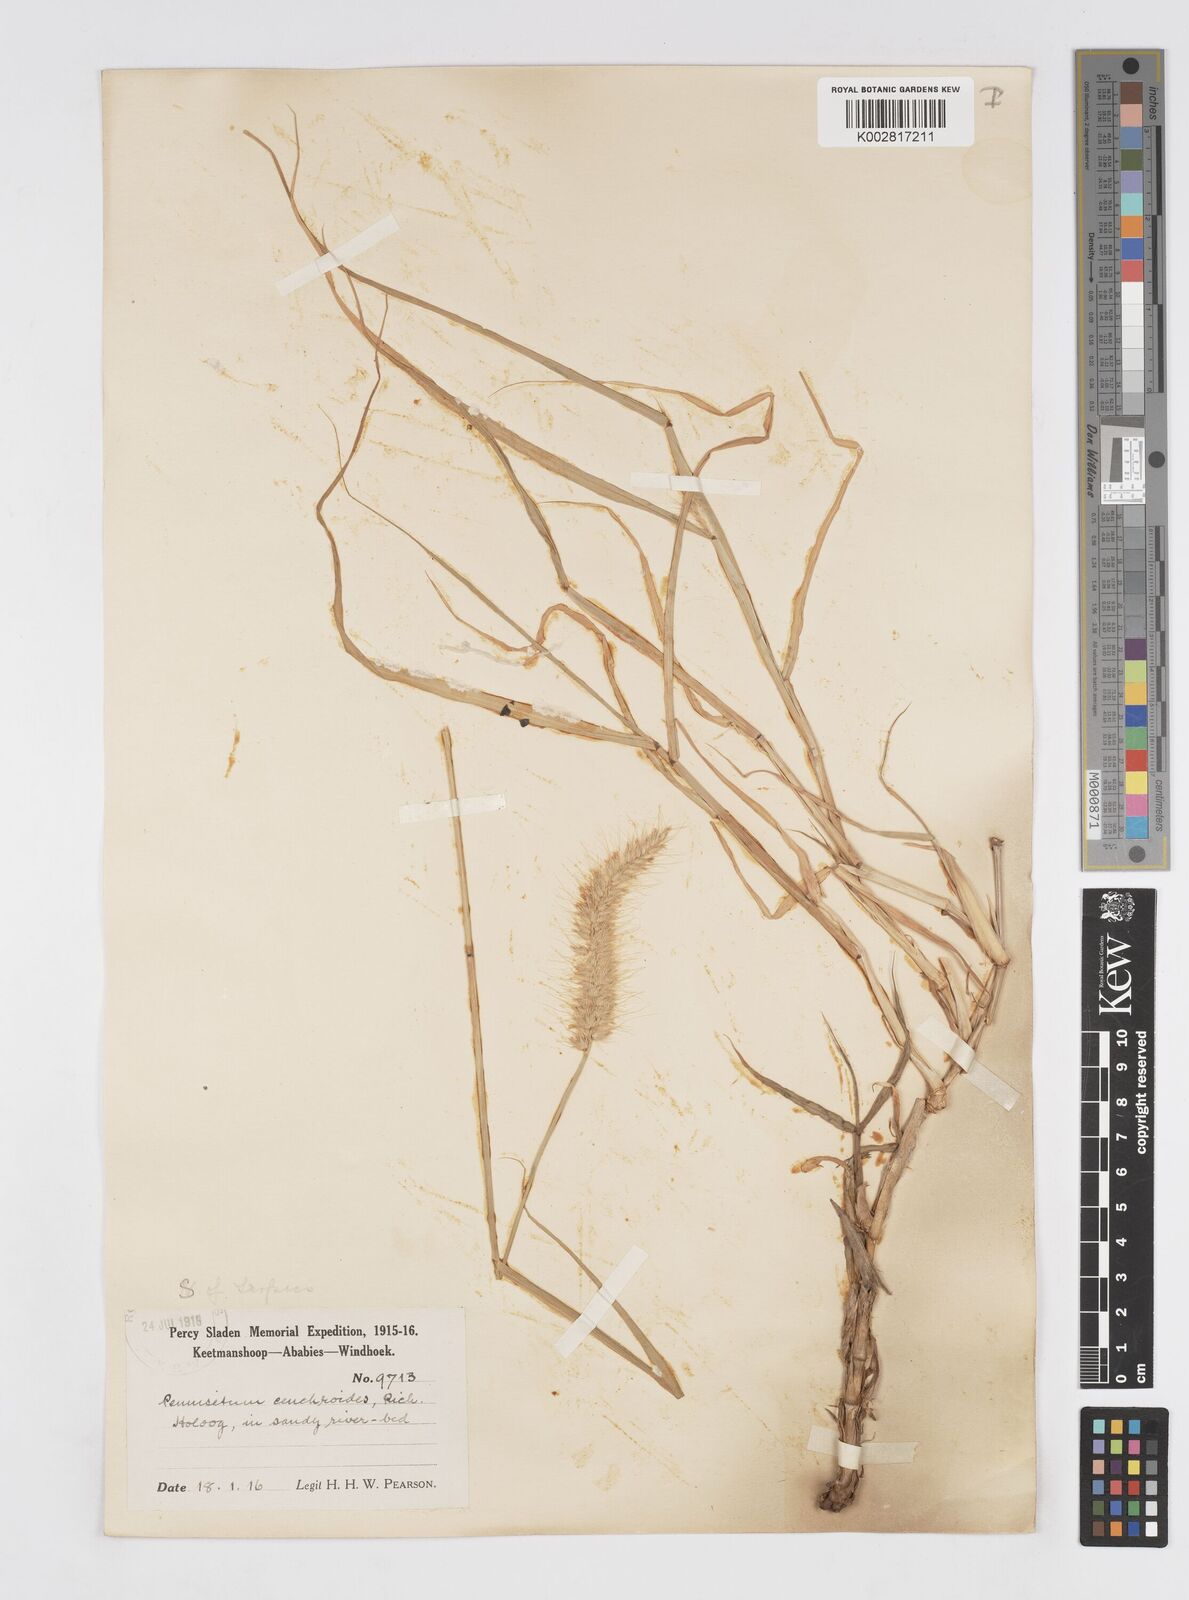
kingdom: Plantae
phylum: Tracheophyta
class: Liliopsida
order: Poales
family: Poaceae
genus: Cenchrus
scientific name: Cenchrus ciliaris
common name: Buffelgrass
